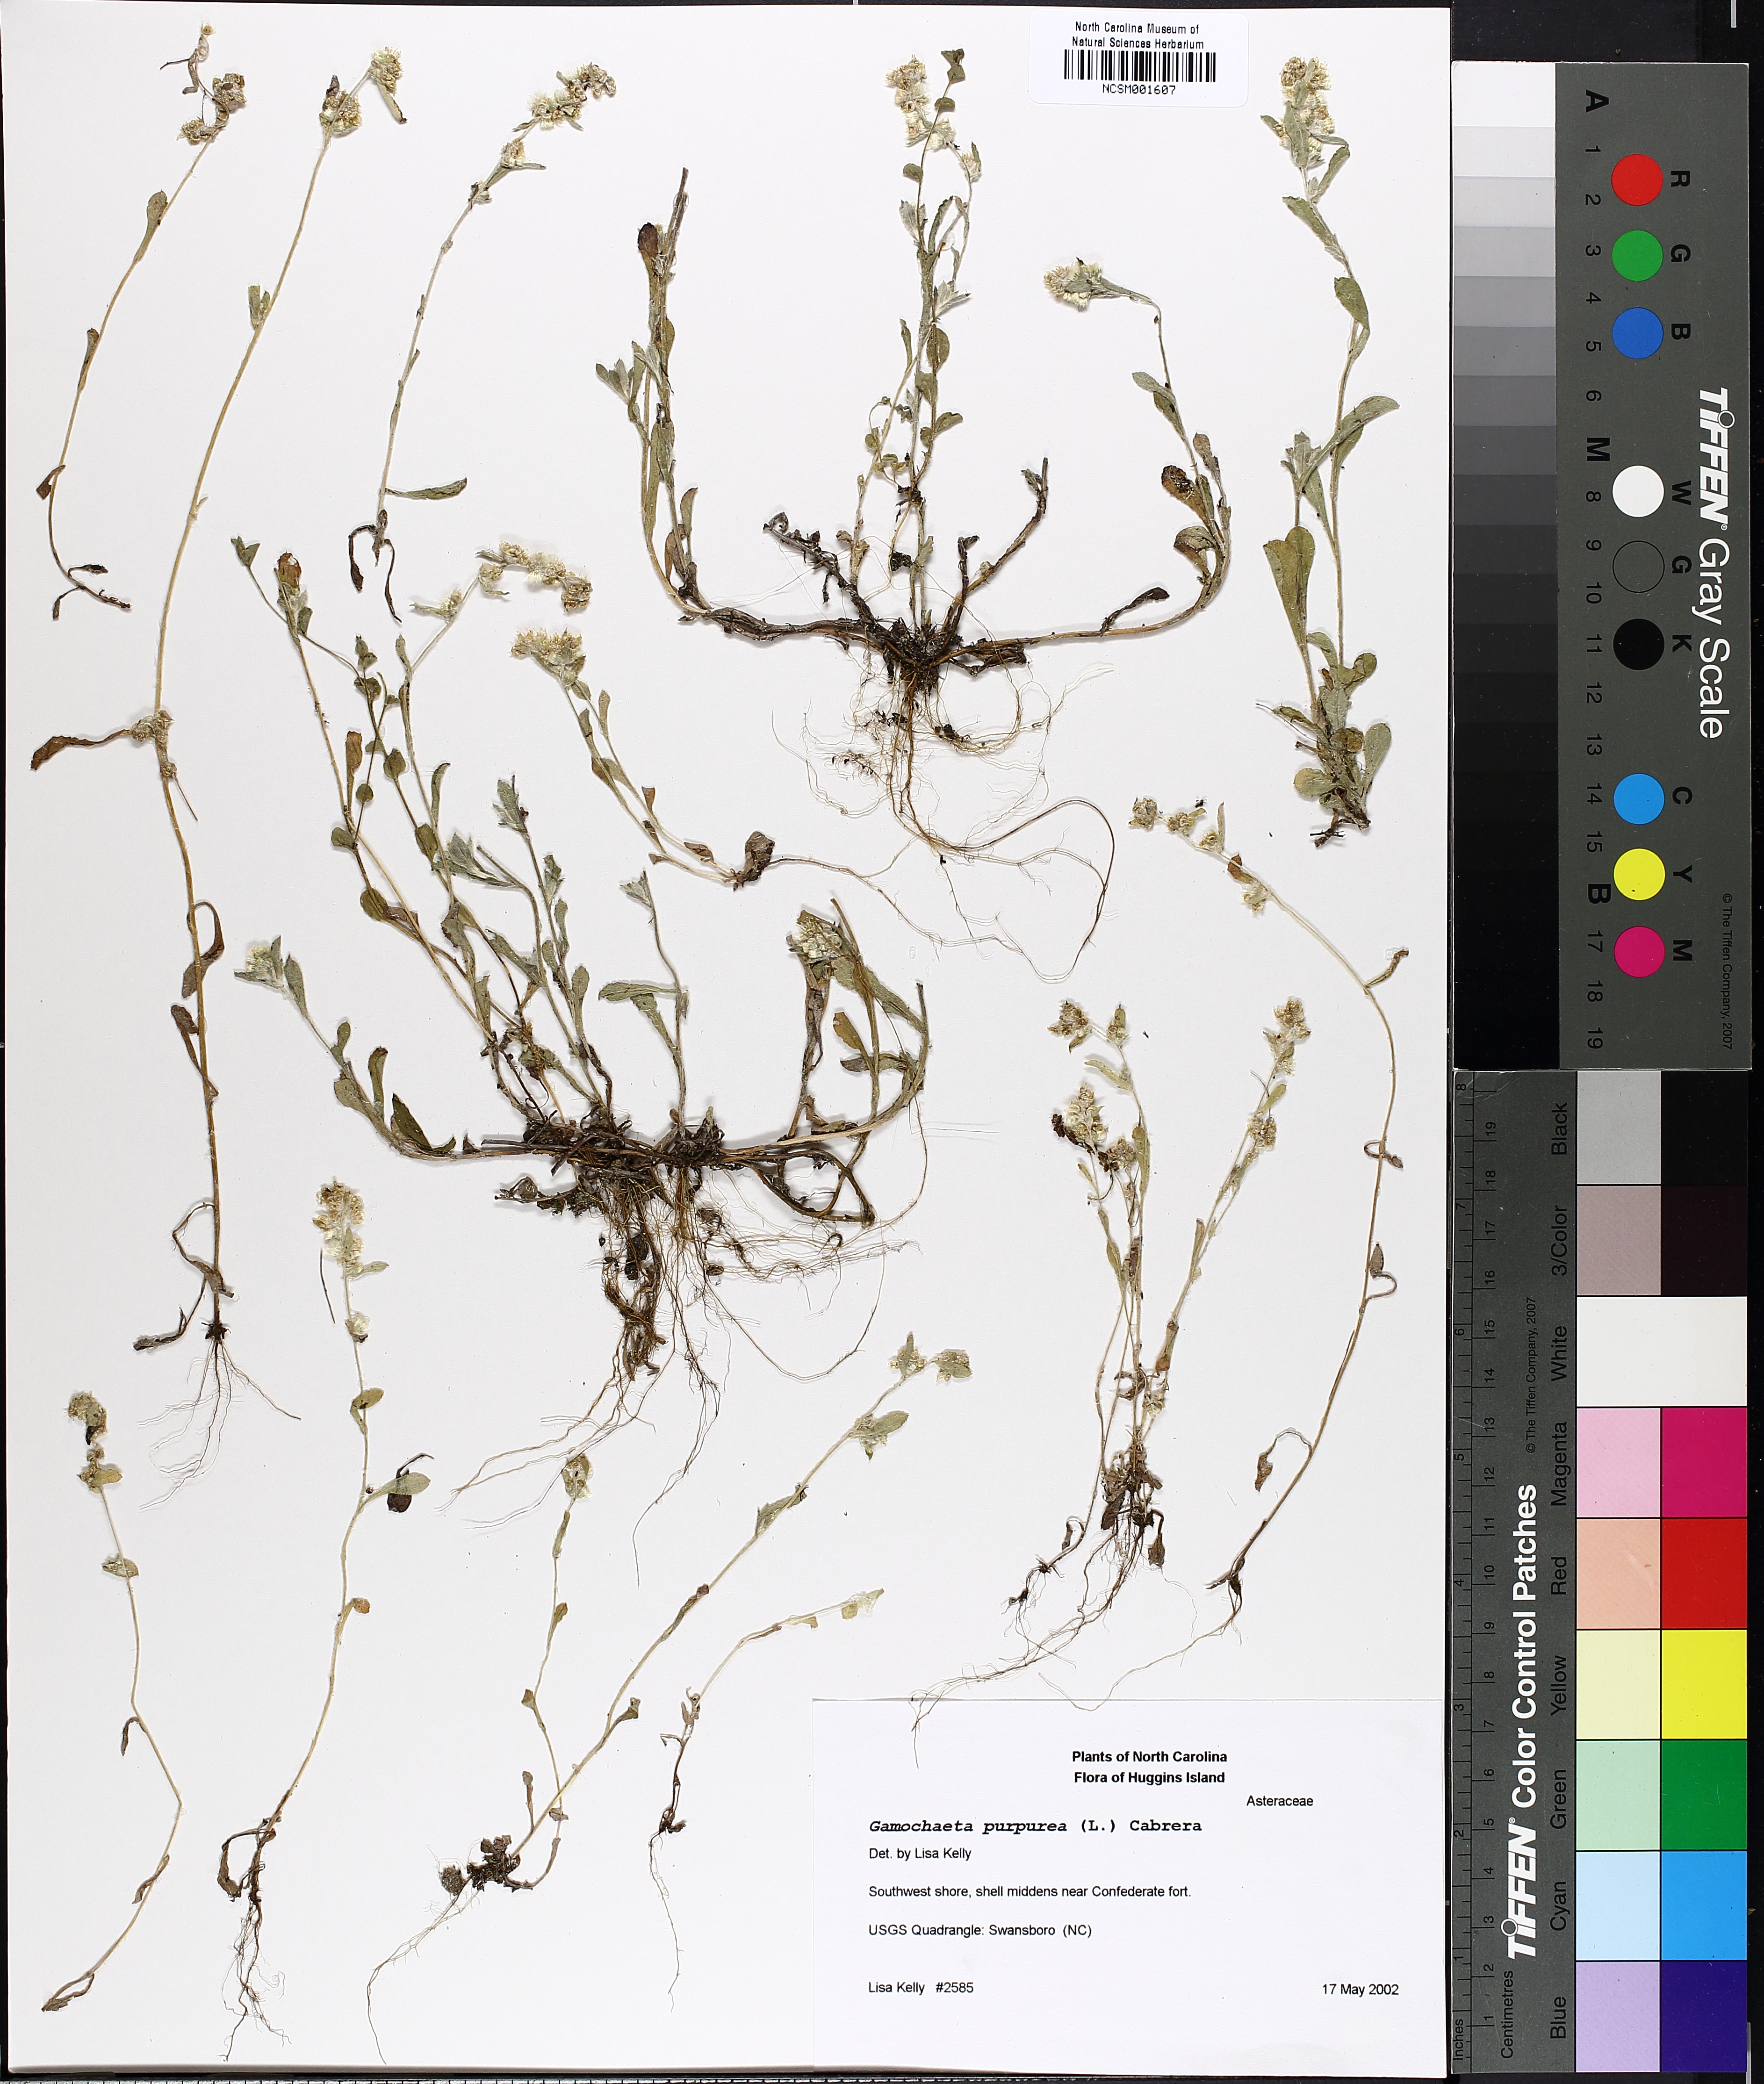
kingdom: Plantae
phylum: Tracheophyta
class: Magnoliopsida
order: Asterales
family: Asteraceae
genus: Gamochaeta
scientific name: Gamochaeta purpurea
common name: Purple cudweed
